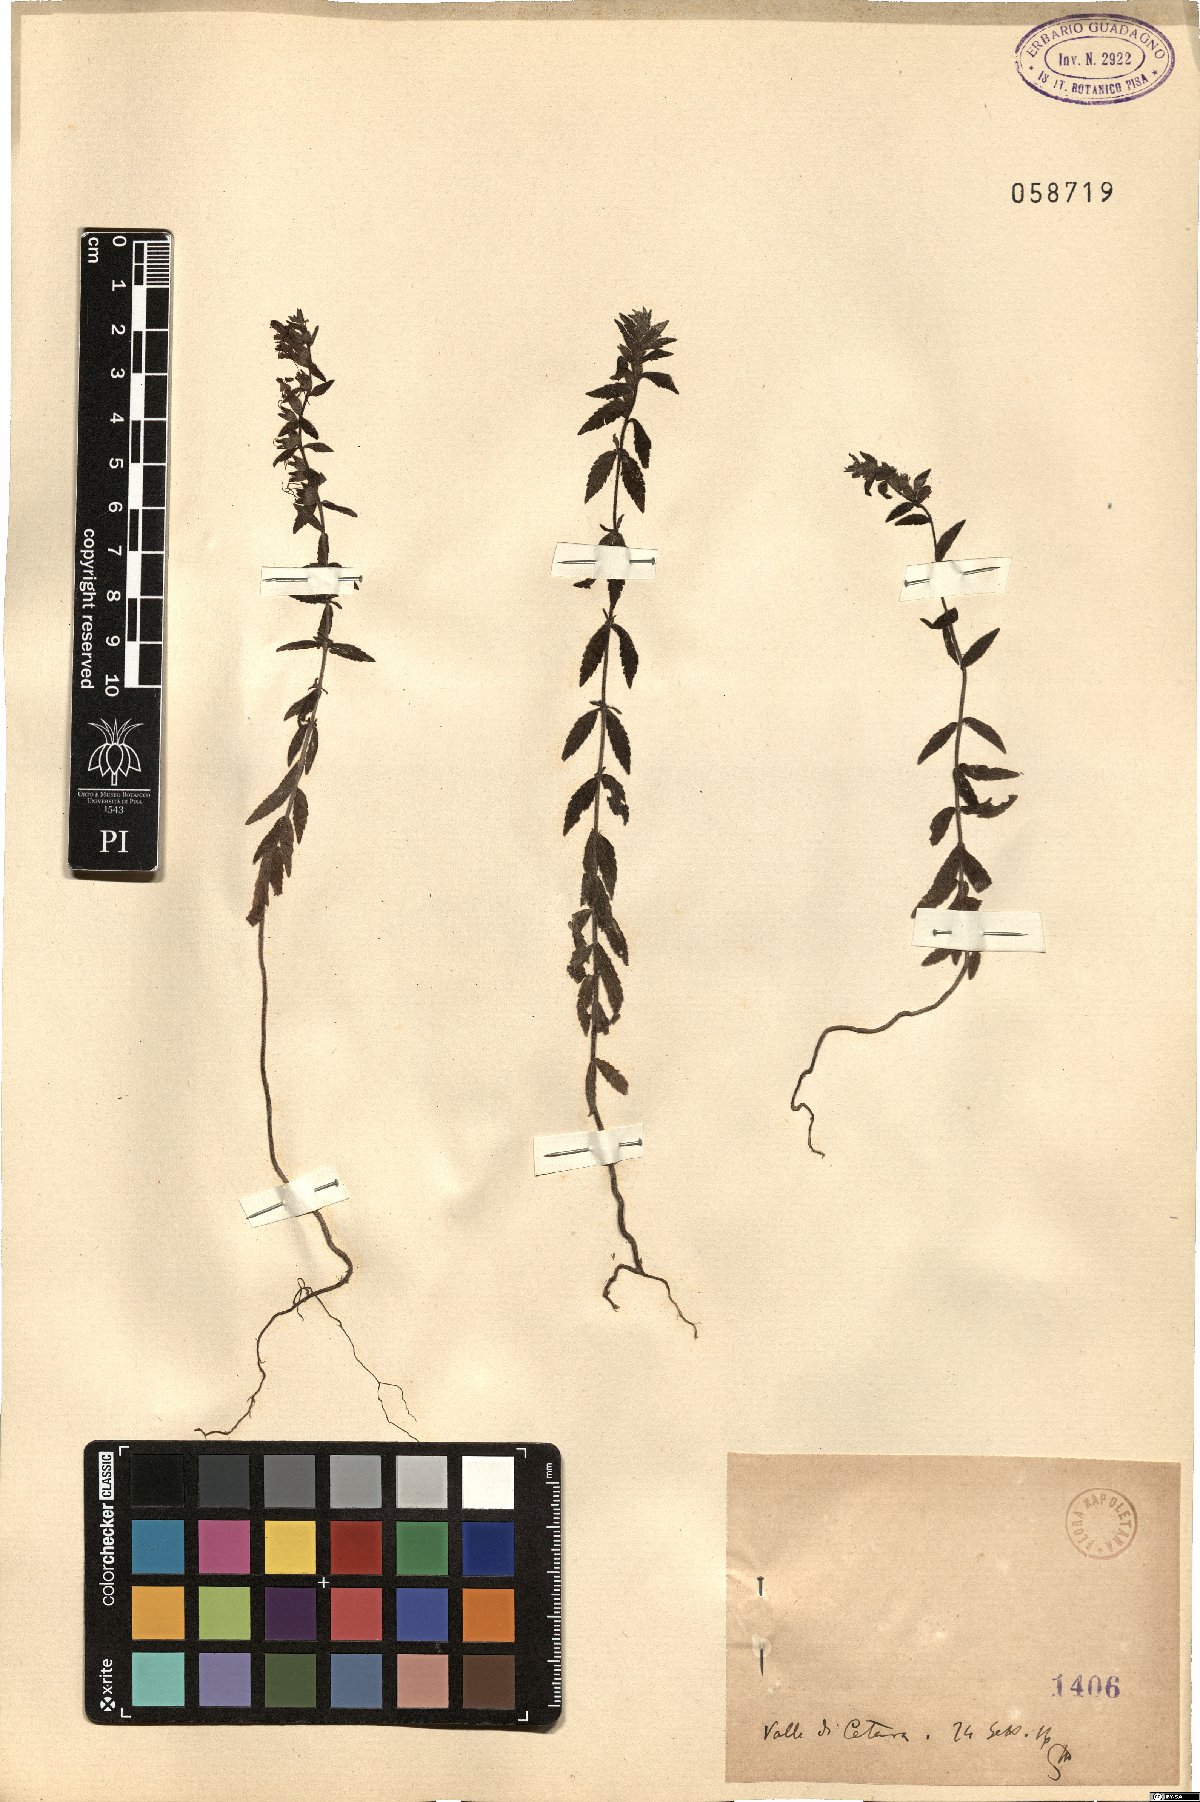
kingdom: Plantae
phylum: Tracheophyta
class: Magnoliopsida
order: Lamiales
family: Orobanchaceae
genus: Bartsia
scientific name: Bartsia
